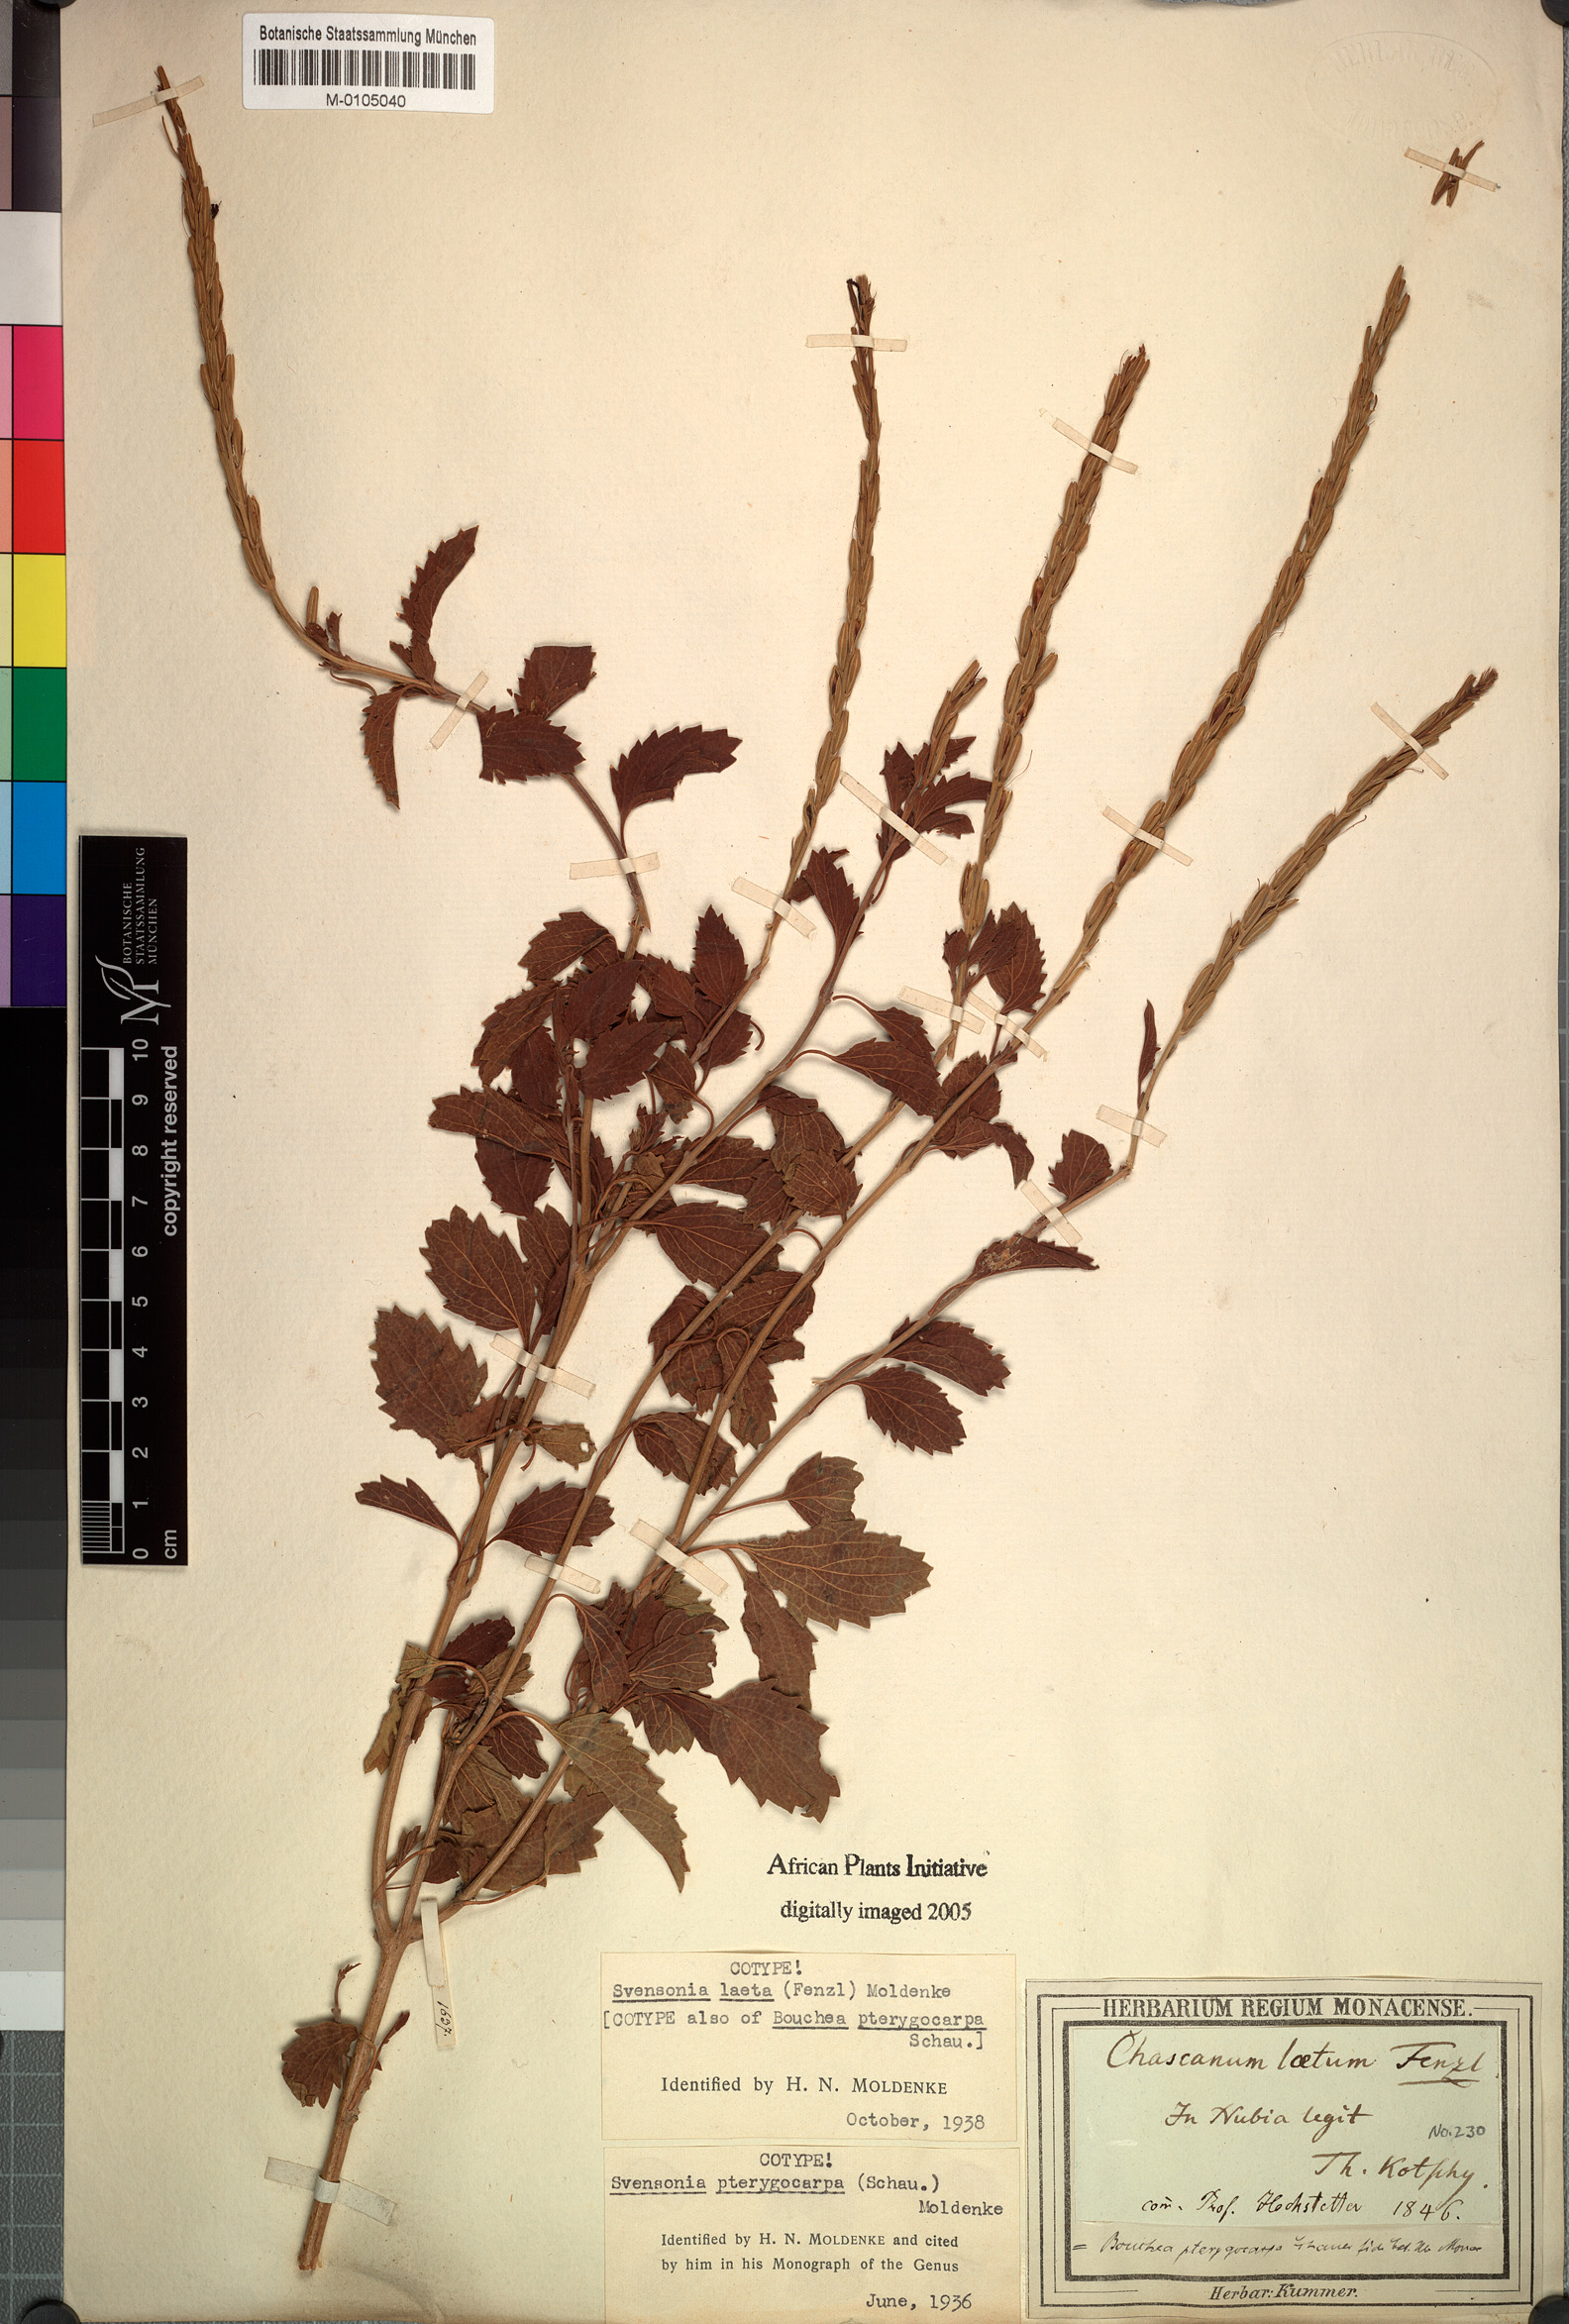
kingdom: Plantae
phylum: Tracheophyta
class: Magnoliopsida
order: Lamiales
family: Verbenaceae
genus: Chascanum
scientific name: Chascanum laetum
